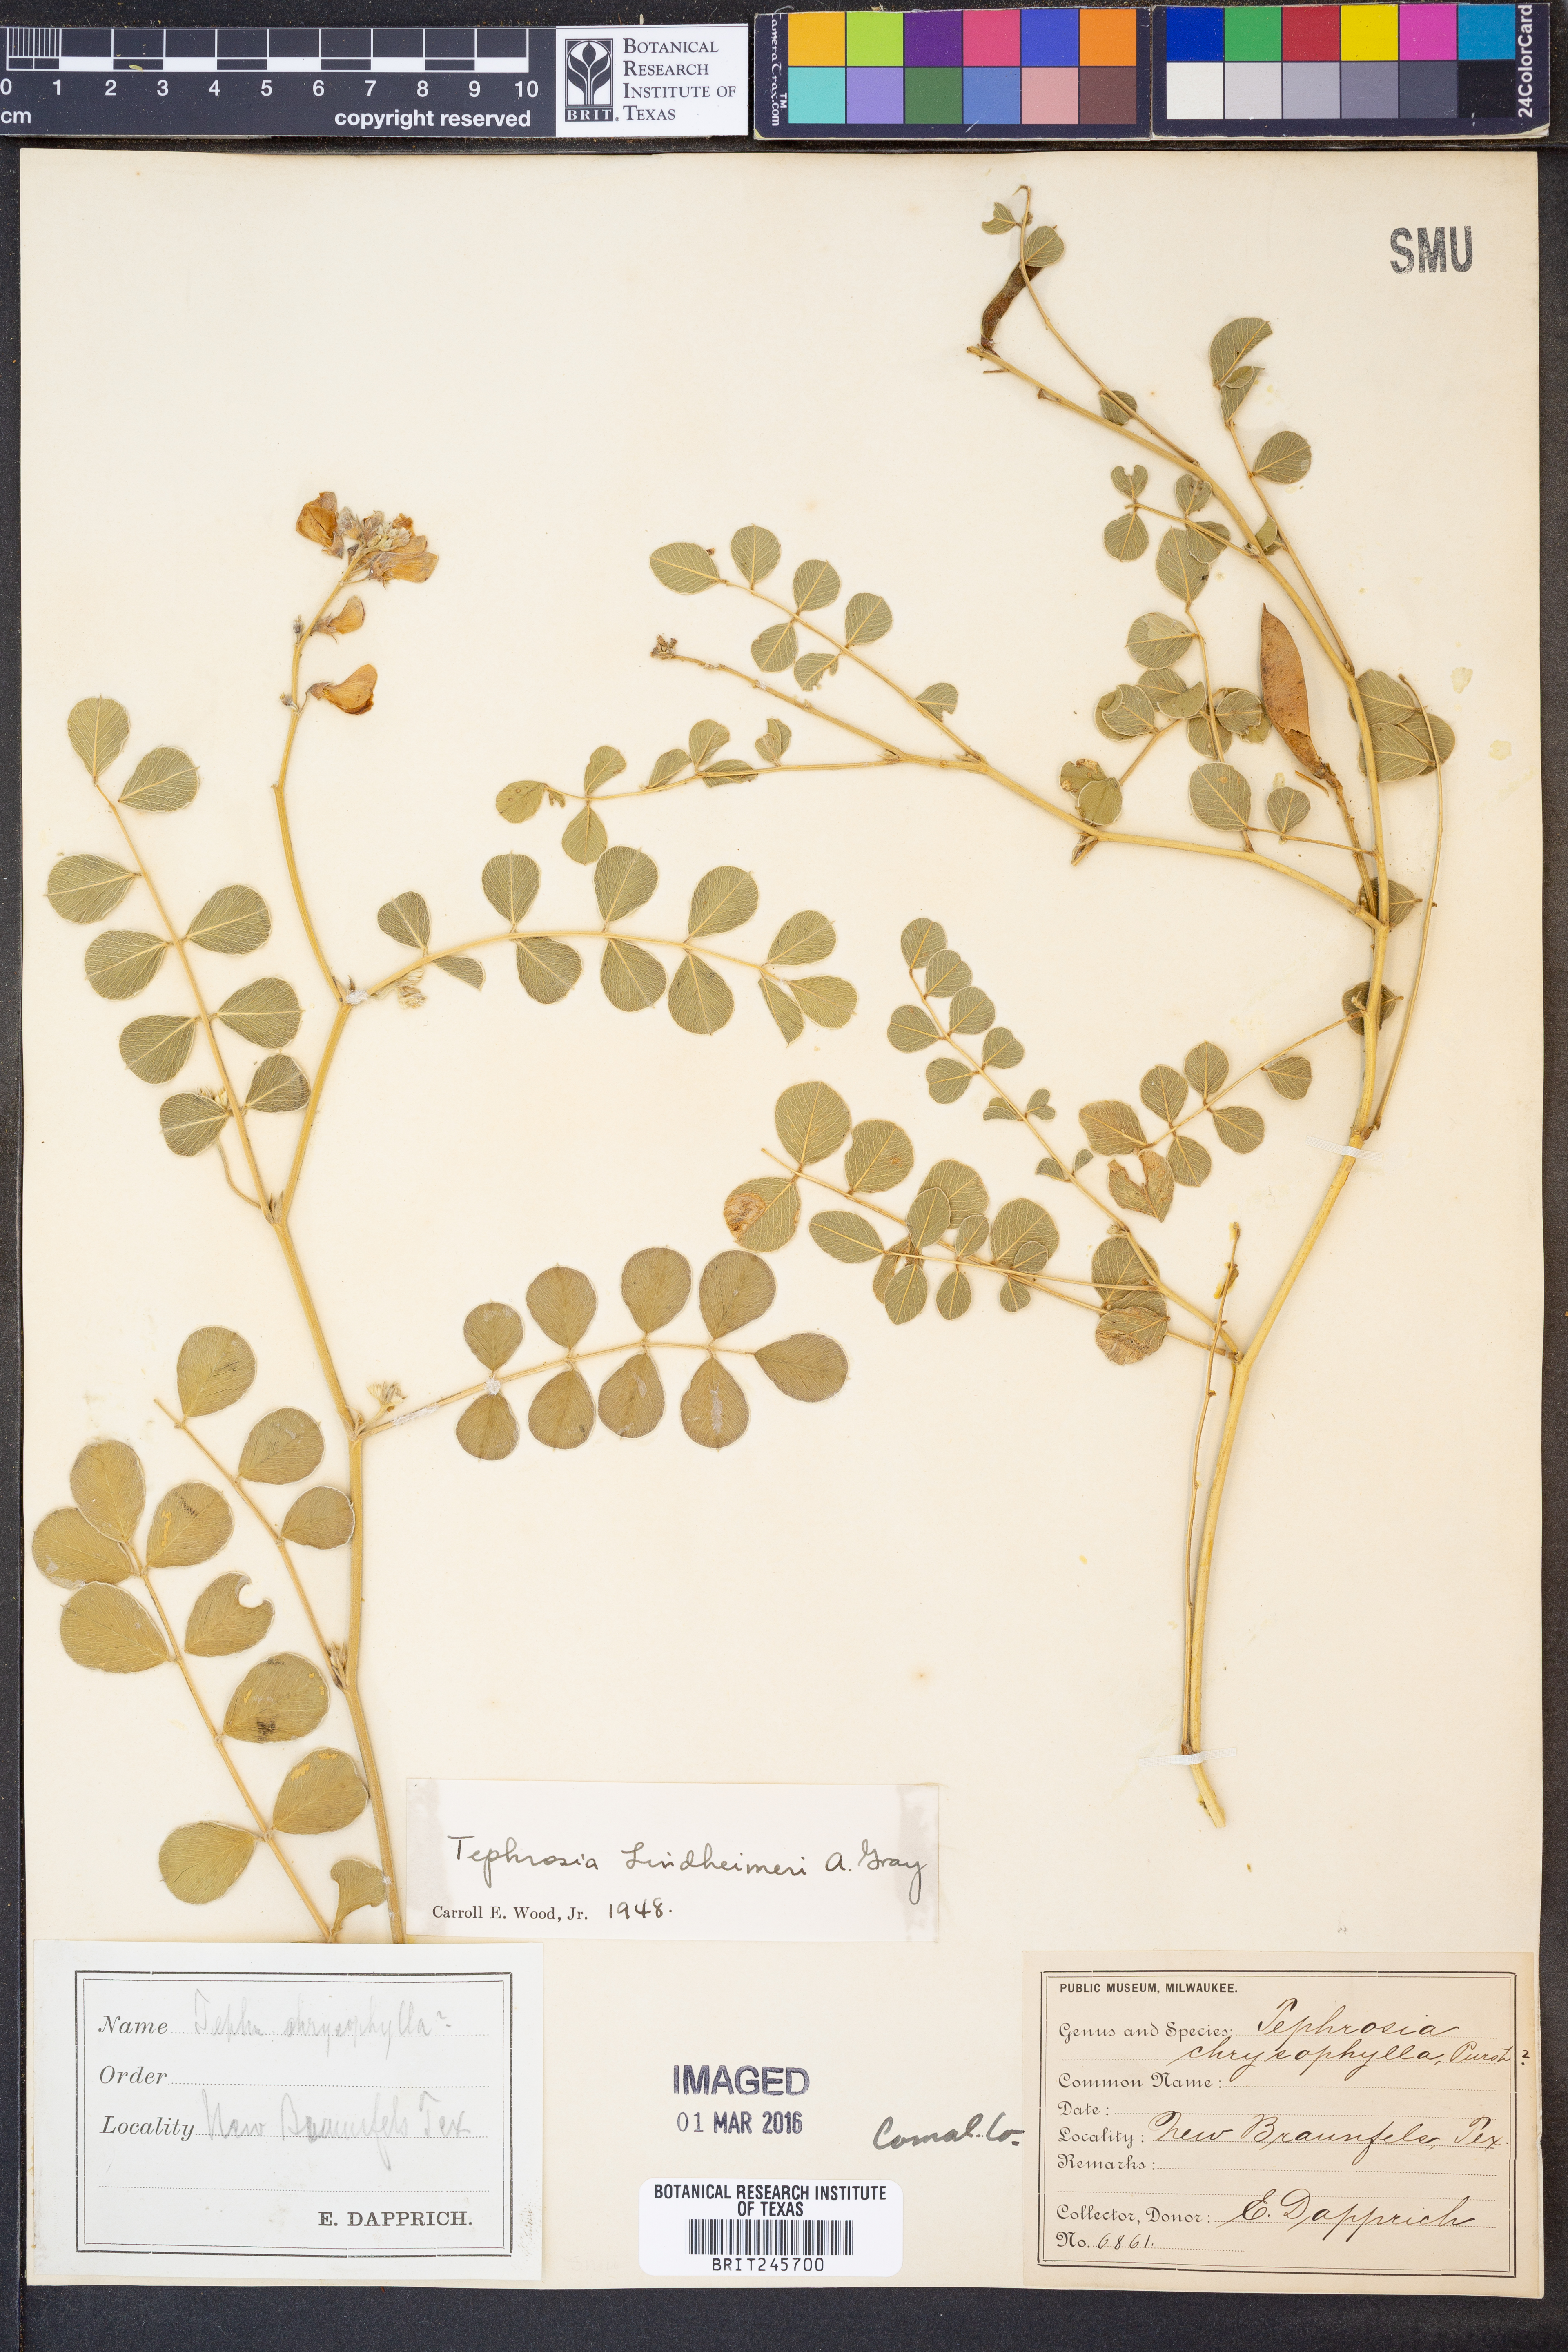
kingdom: Plantae
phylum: Tracheophyta
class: Magnoliopsida
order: Fabales
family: Fabaceae
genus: Tephrosia
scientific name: Tephrosia lindheimeri
